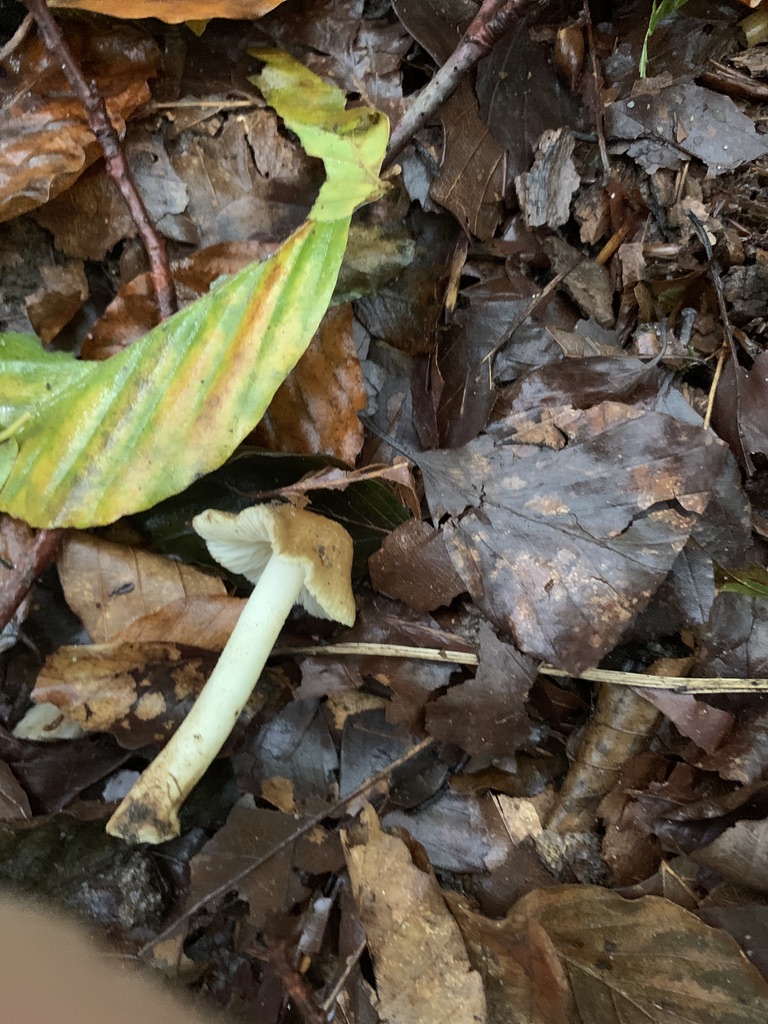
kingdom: Fungi
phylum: Basidiomycota
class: Agaricomycetes
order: Agaricales
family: Inocybaceae
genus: Inocybe
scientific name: Inocybe mixtilis
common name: randknoldet trævlhat
